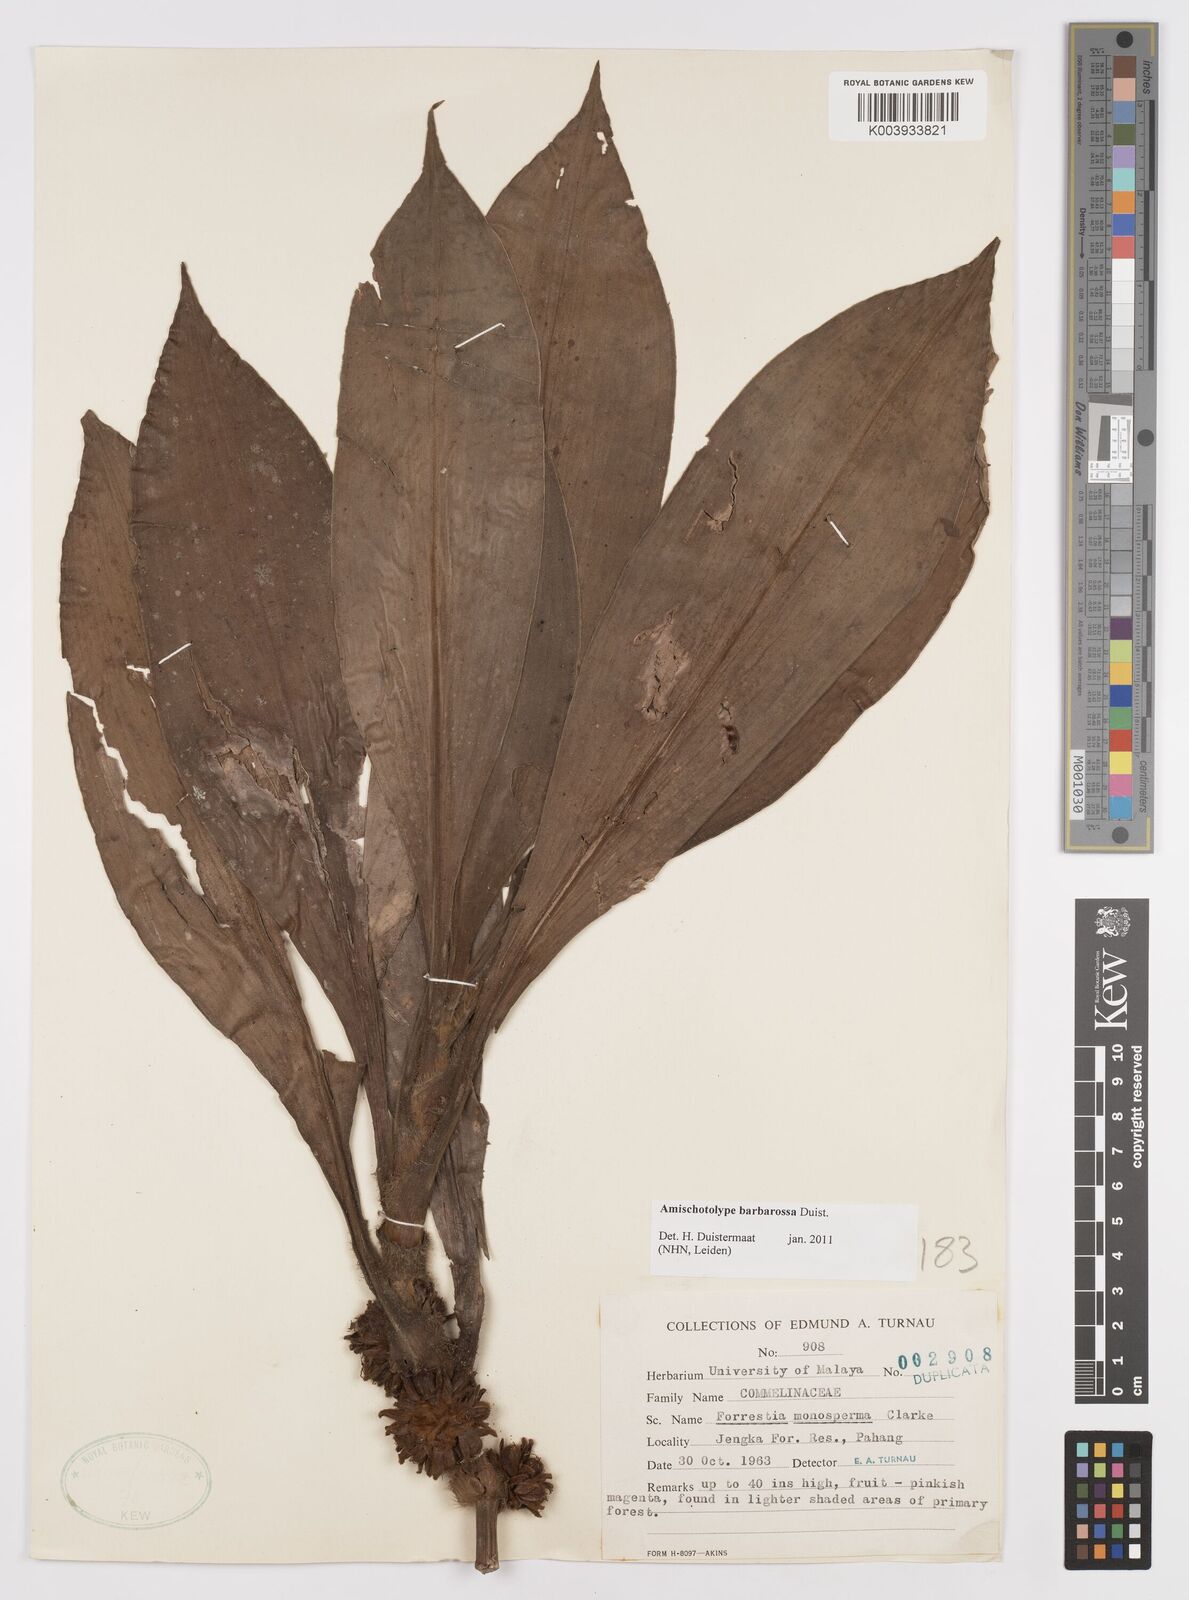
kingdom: Plantae
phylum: Tracheophyta
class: Liliopsida
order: Commelinales
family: Commelinaceae
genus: Amischotolype
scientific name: Amischotolype barbarossa
